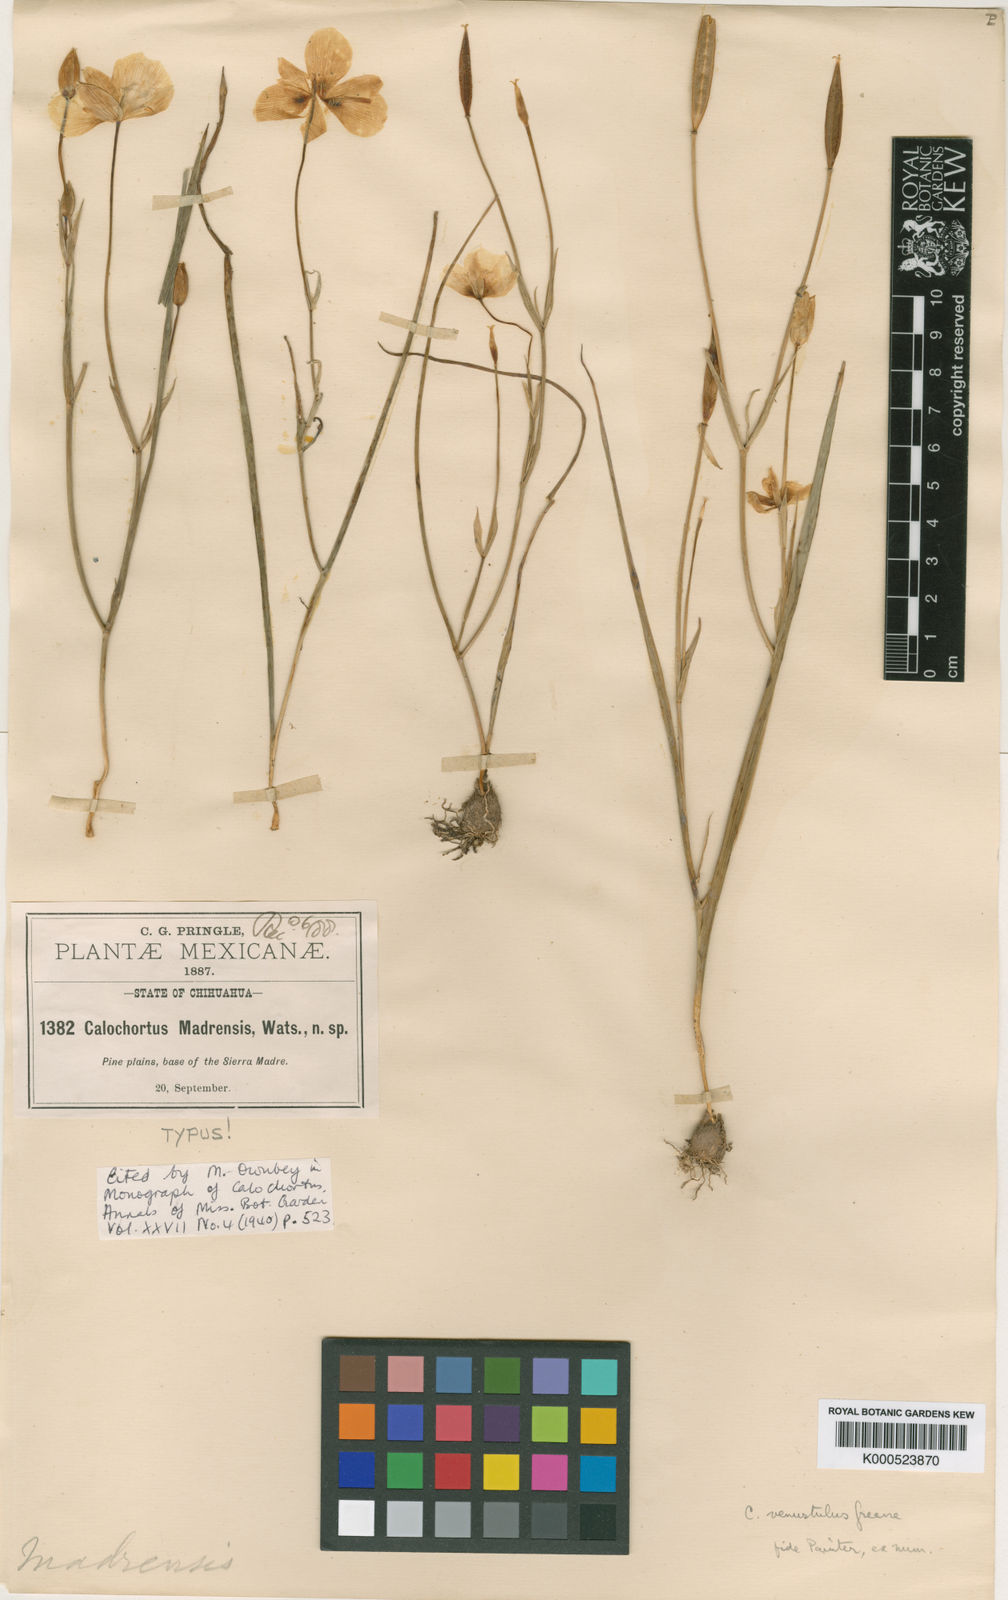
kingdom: Plantae
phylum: Tracheophyta
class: Liliopsida
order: Liliales
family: Liliaceae
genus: Calochortus
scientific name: Calochortus venustulus
